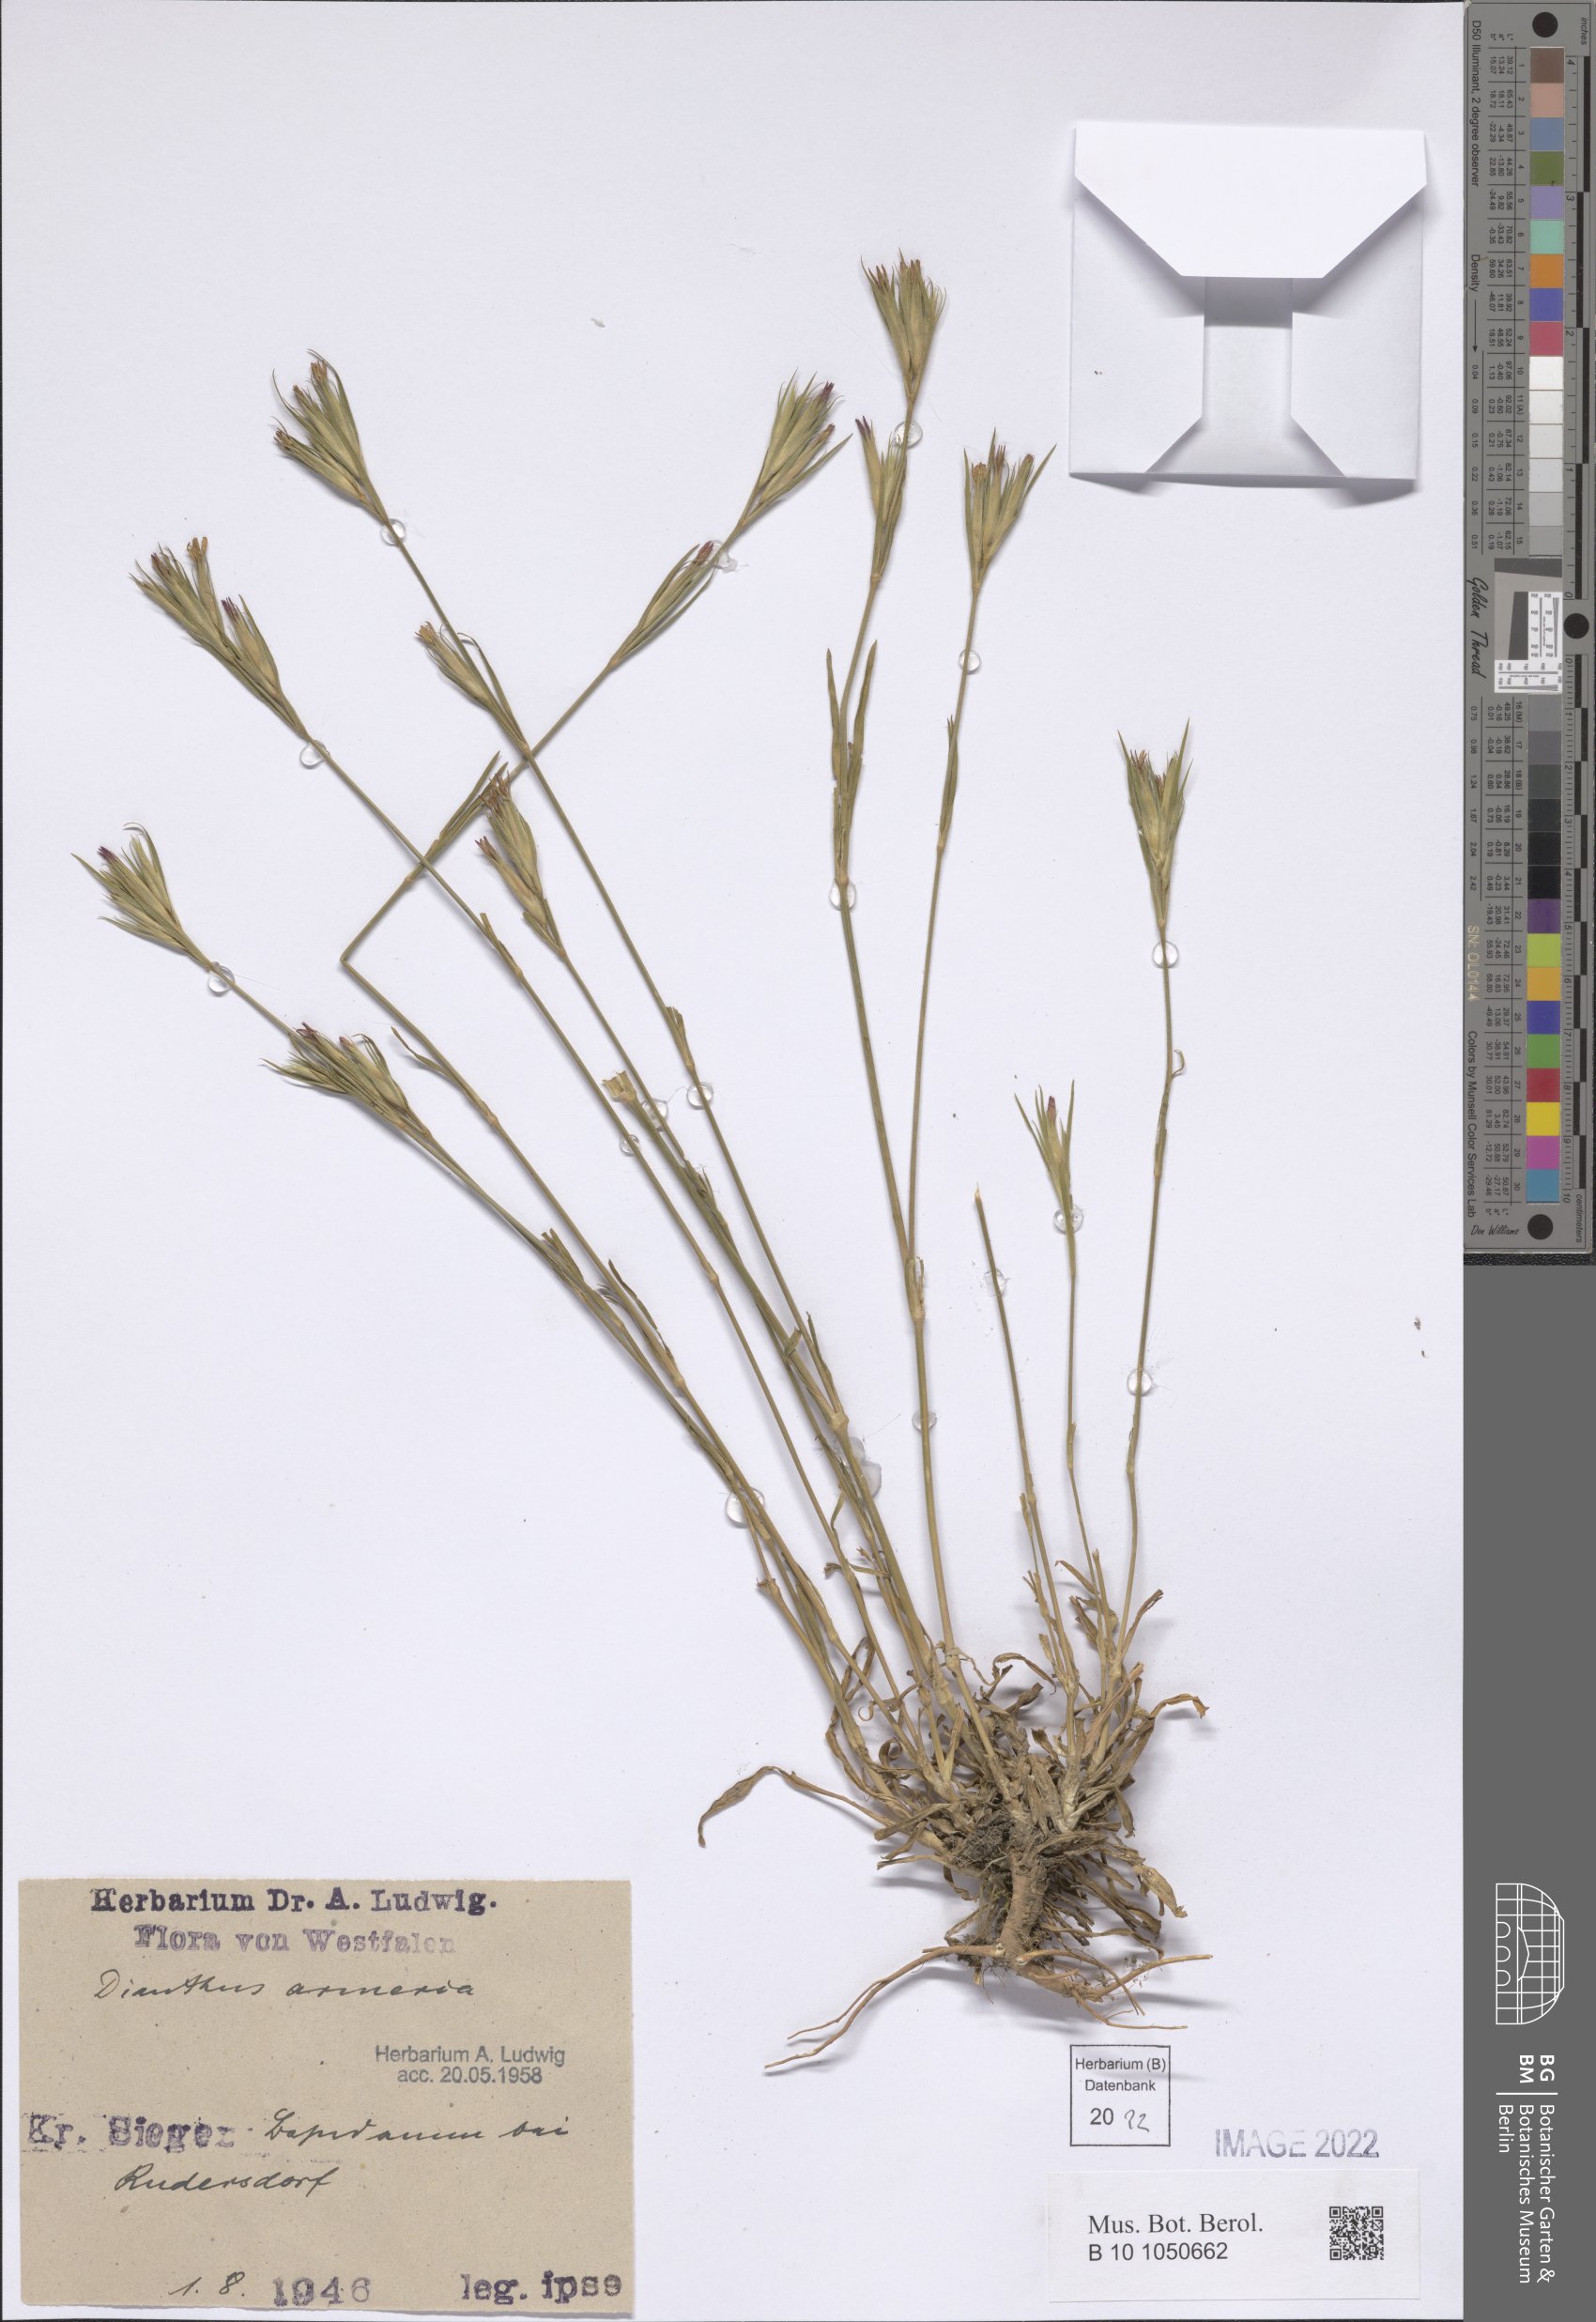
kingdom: Plantae
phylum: Tracheophyta
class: Magnoliopsida
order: Caryophyllales
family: Caryophyllaceae
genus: Dianthus
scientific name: Dianthus armeria
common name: Deptford pink
